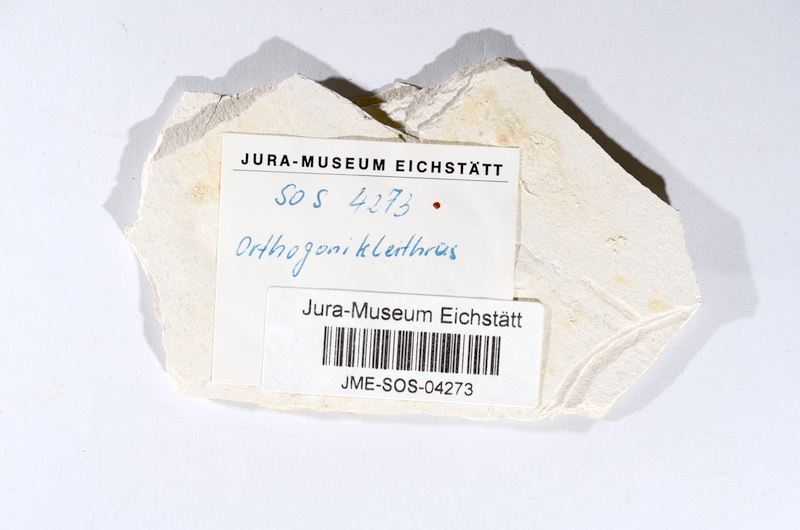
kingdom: Animalia
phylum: Chordata
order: Salmoniformes
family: Orthogonikleithridae
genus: Orthogonikleithrus
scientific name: Orthogonikleithrus hoelli
